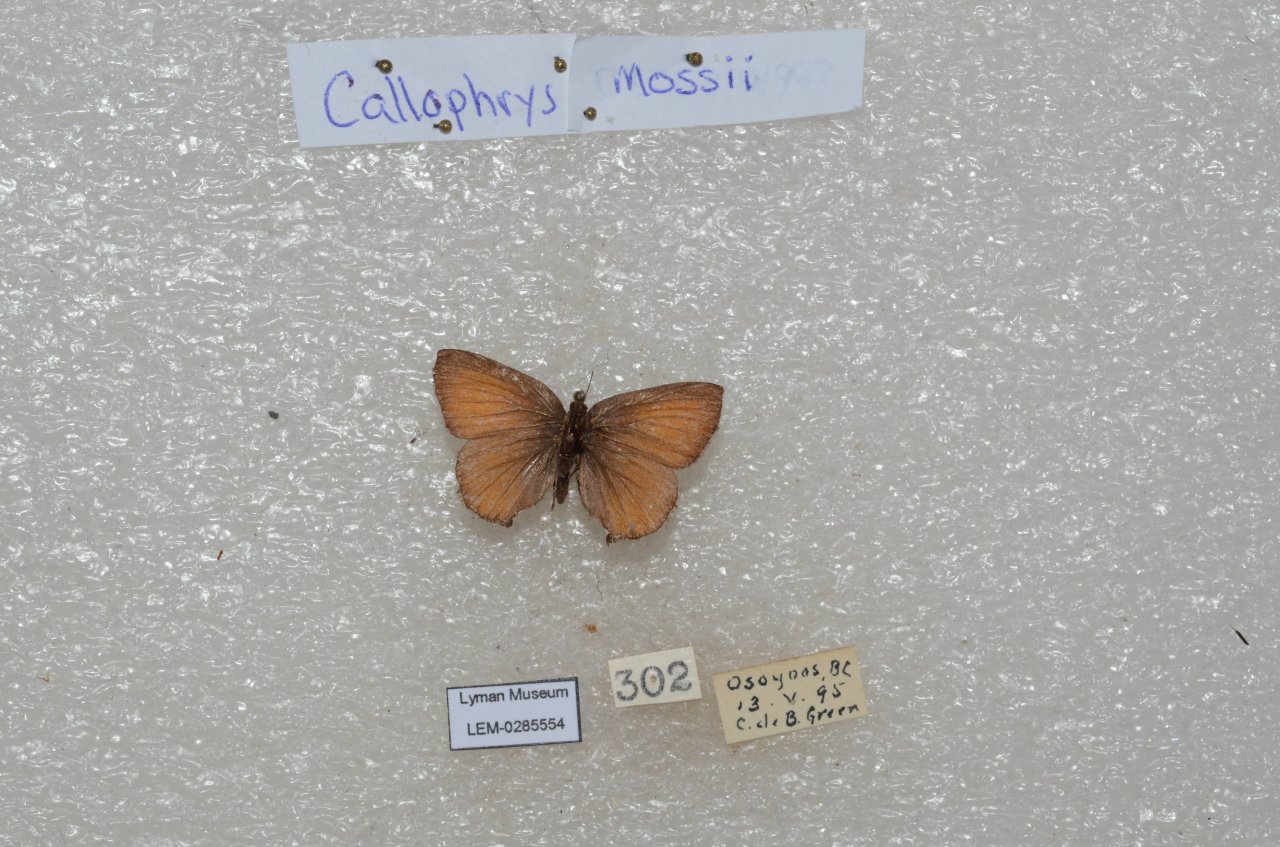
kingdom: Animalia
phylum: Arthropoda
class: Insecta
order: Lepidoptera
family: Lycaenidae
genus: Callophrys
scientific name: Callophrys mossii
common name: Moss' Elfin
